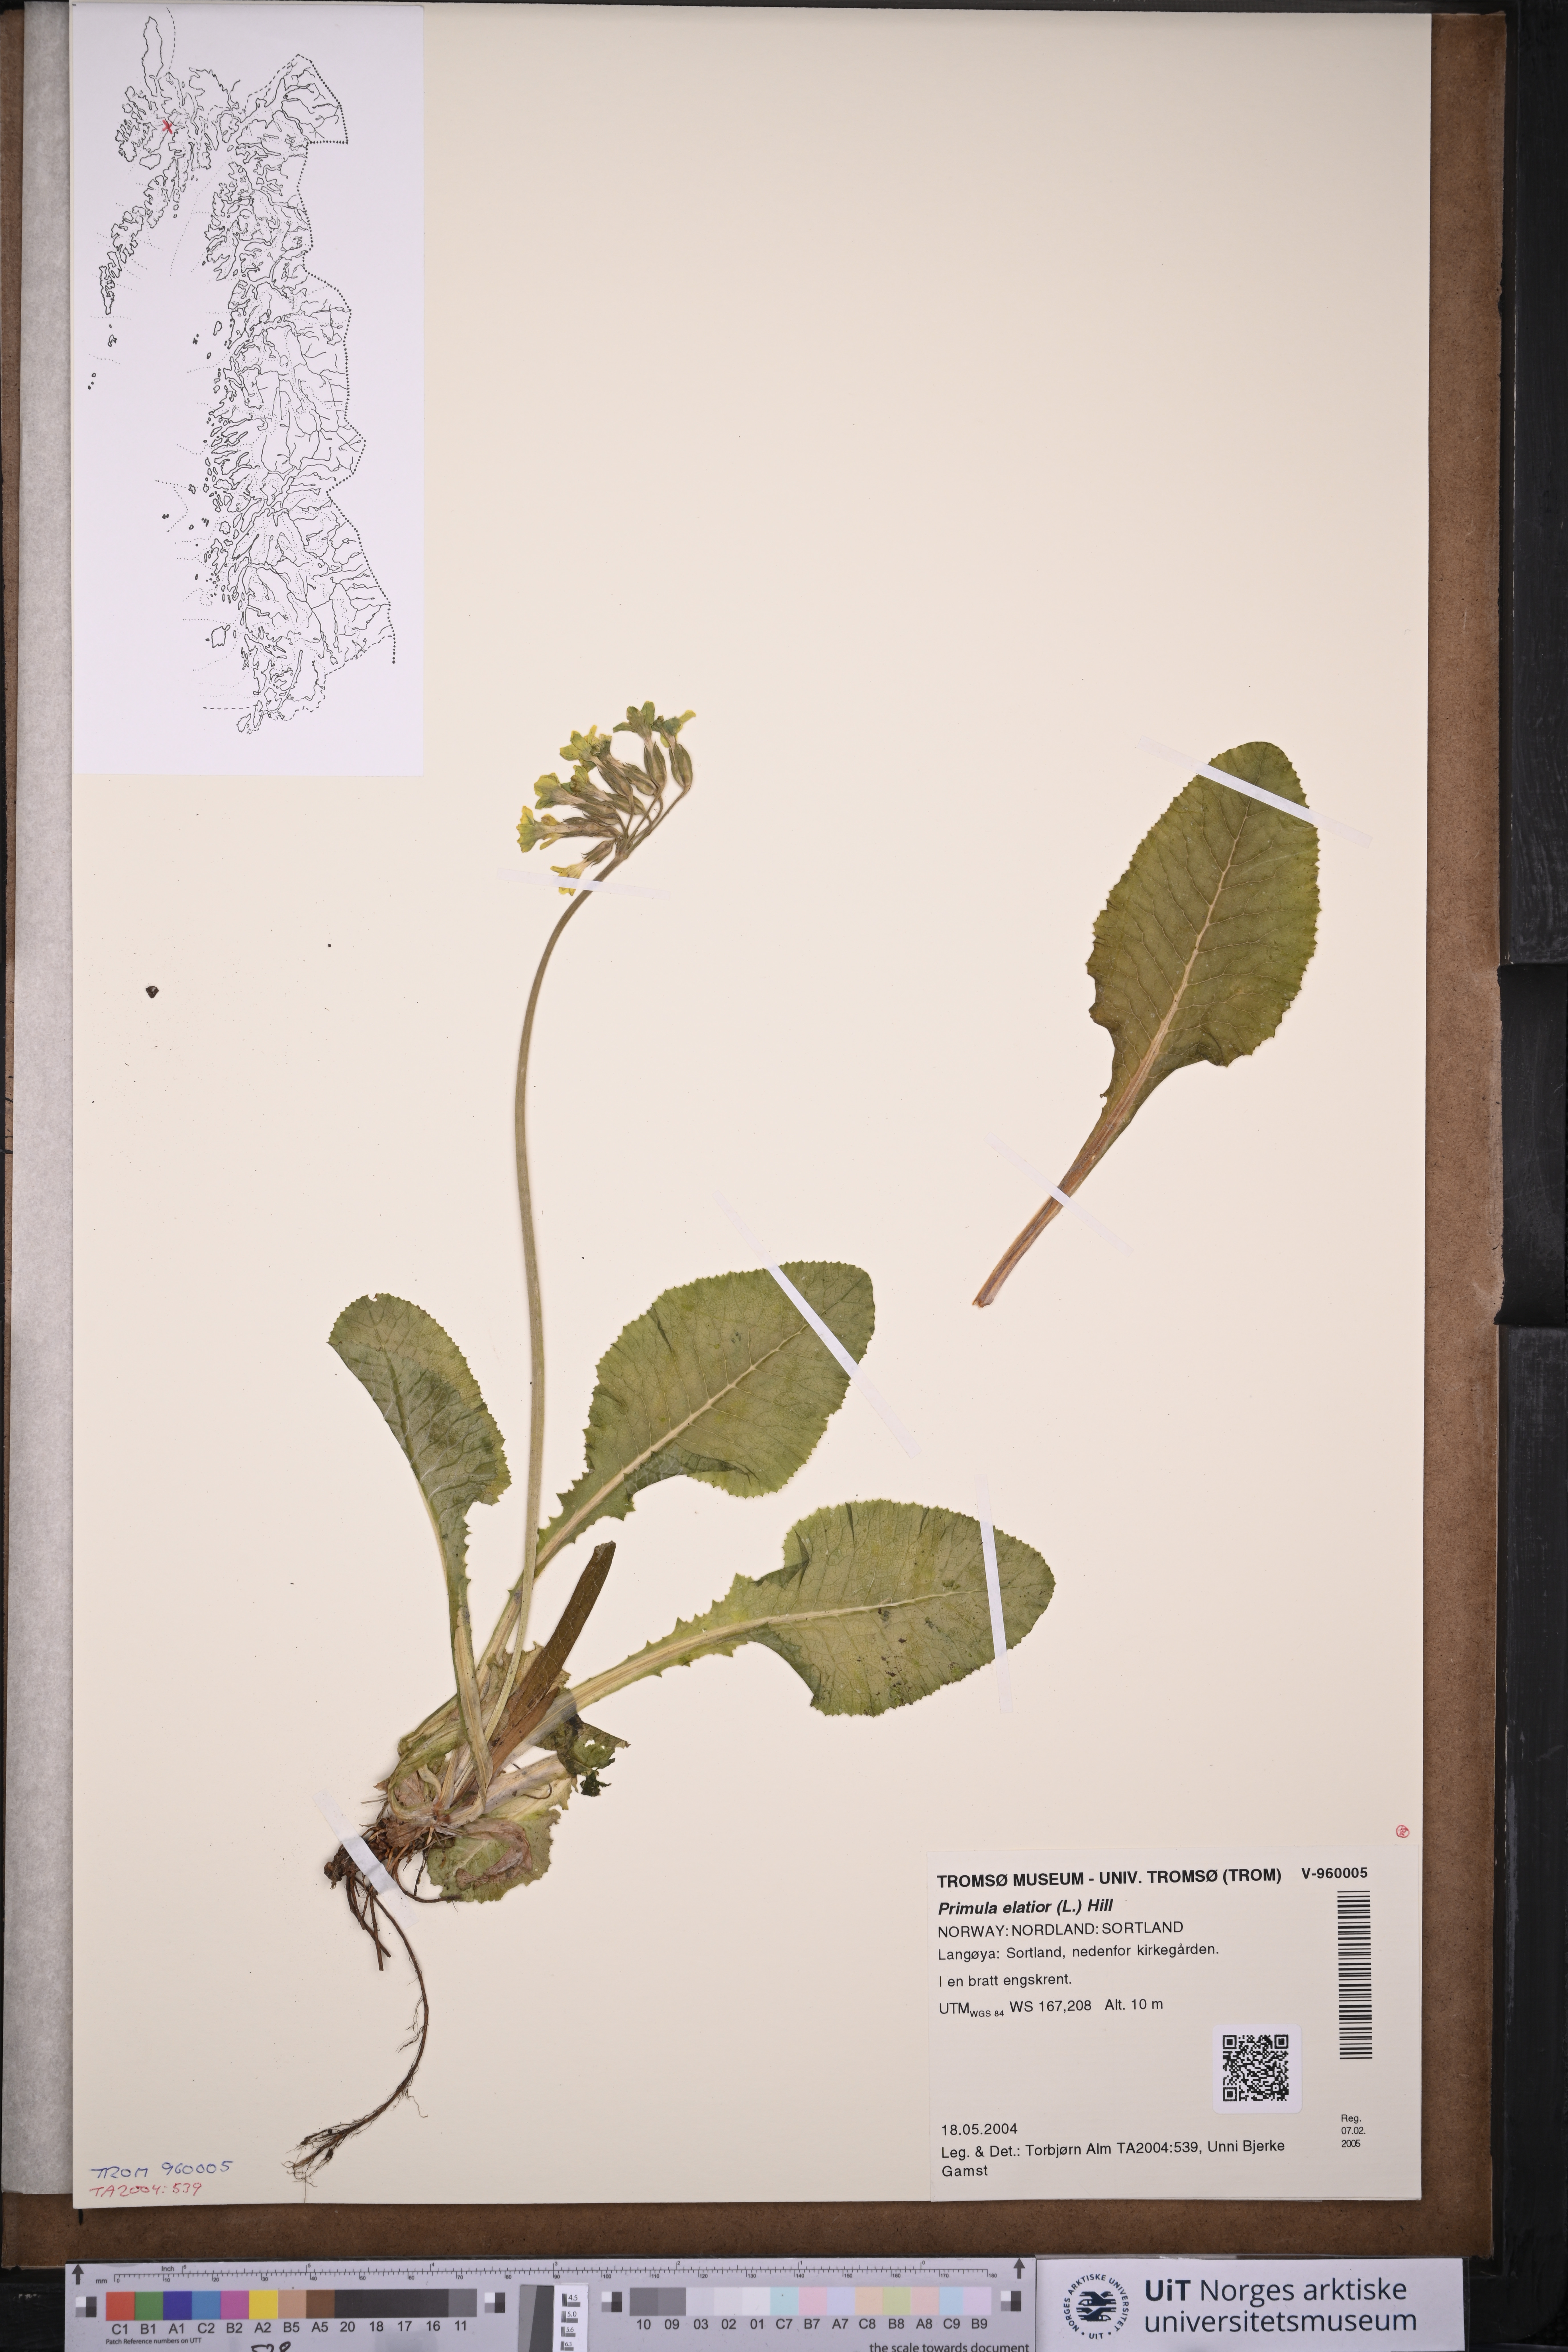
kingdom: Plantae
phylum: Tracheophyta
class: Magnoliopsida
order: Ericales
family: Primulaceae
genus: Primula
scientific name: Primula elatior
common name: Oxlip
